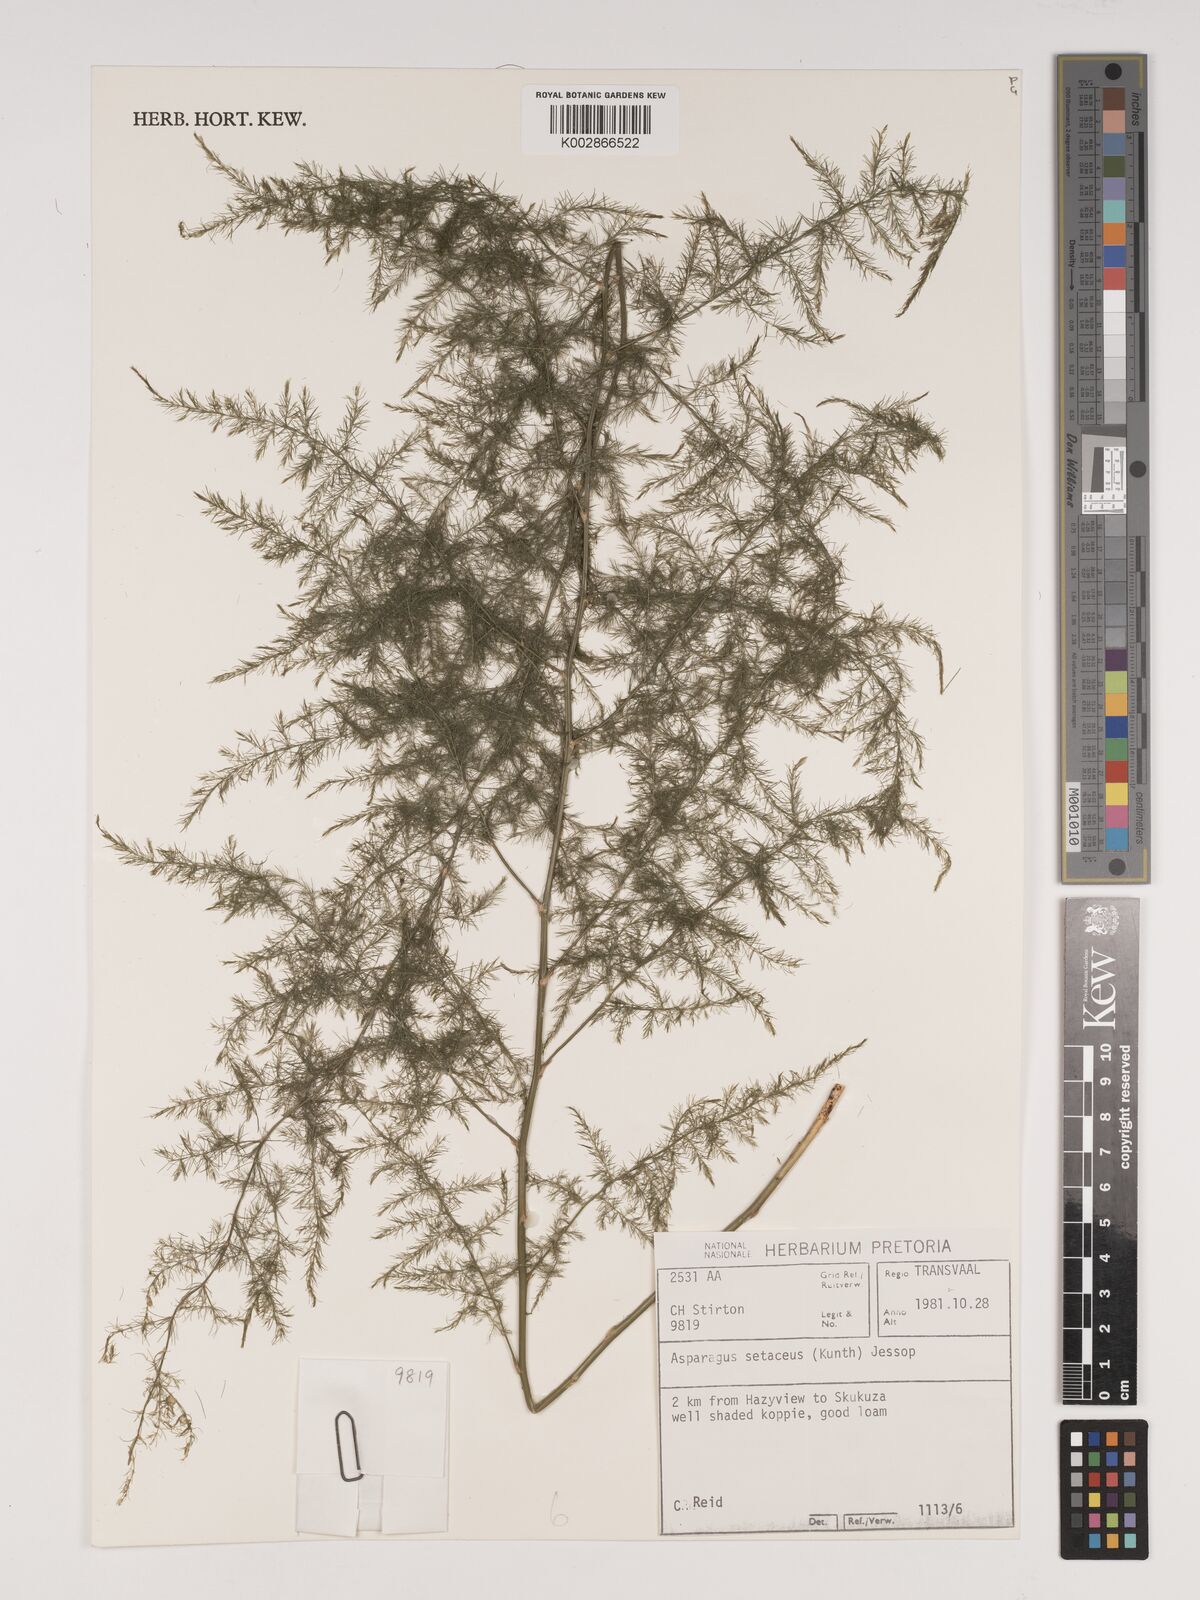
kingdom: Plantae
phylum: Tracheophyta
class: Liliopsida
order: Asparagales
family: Asparagaceae
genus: Asparagus
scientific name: Asparagus setaceus
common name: Common asparagus fern
